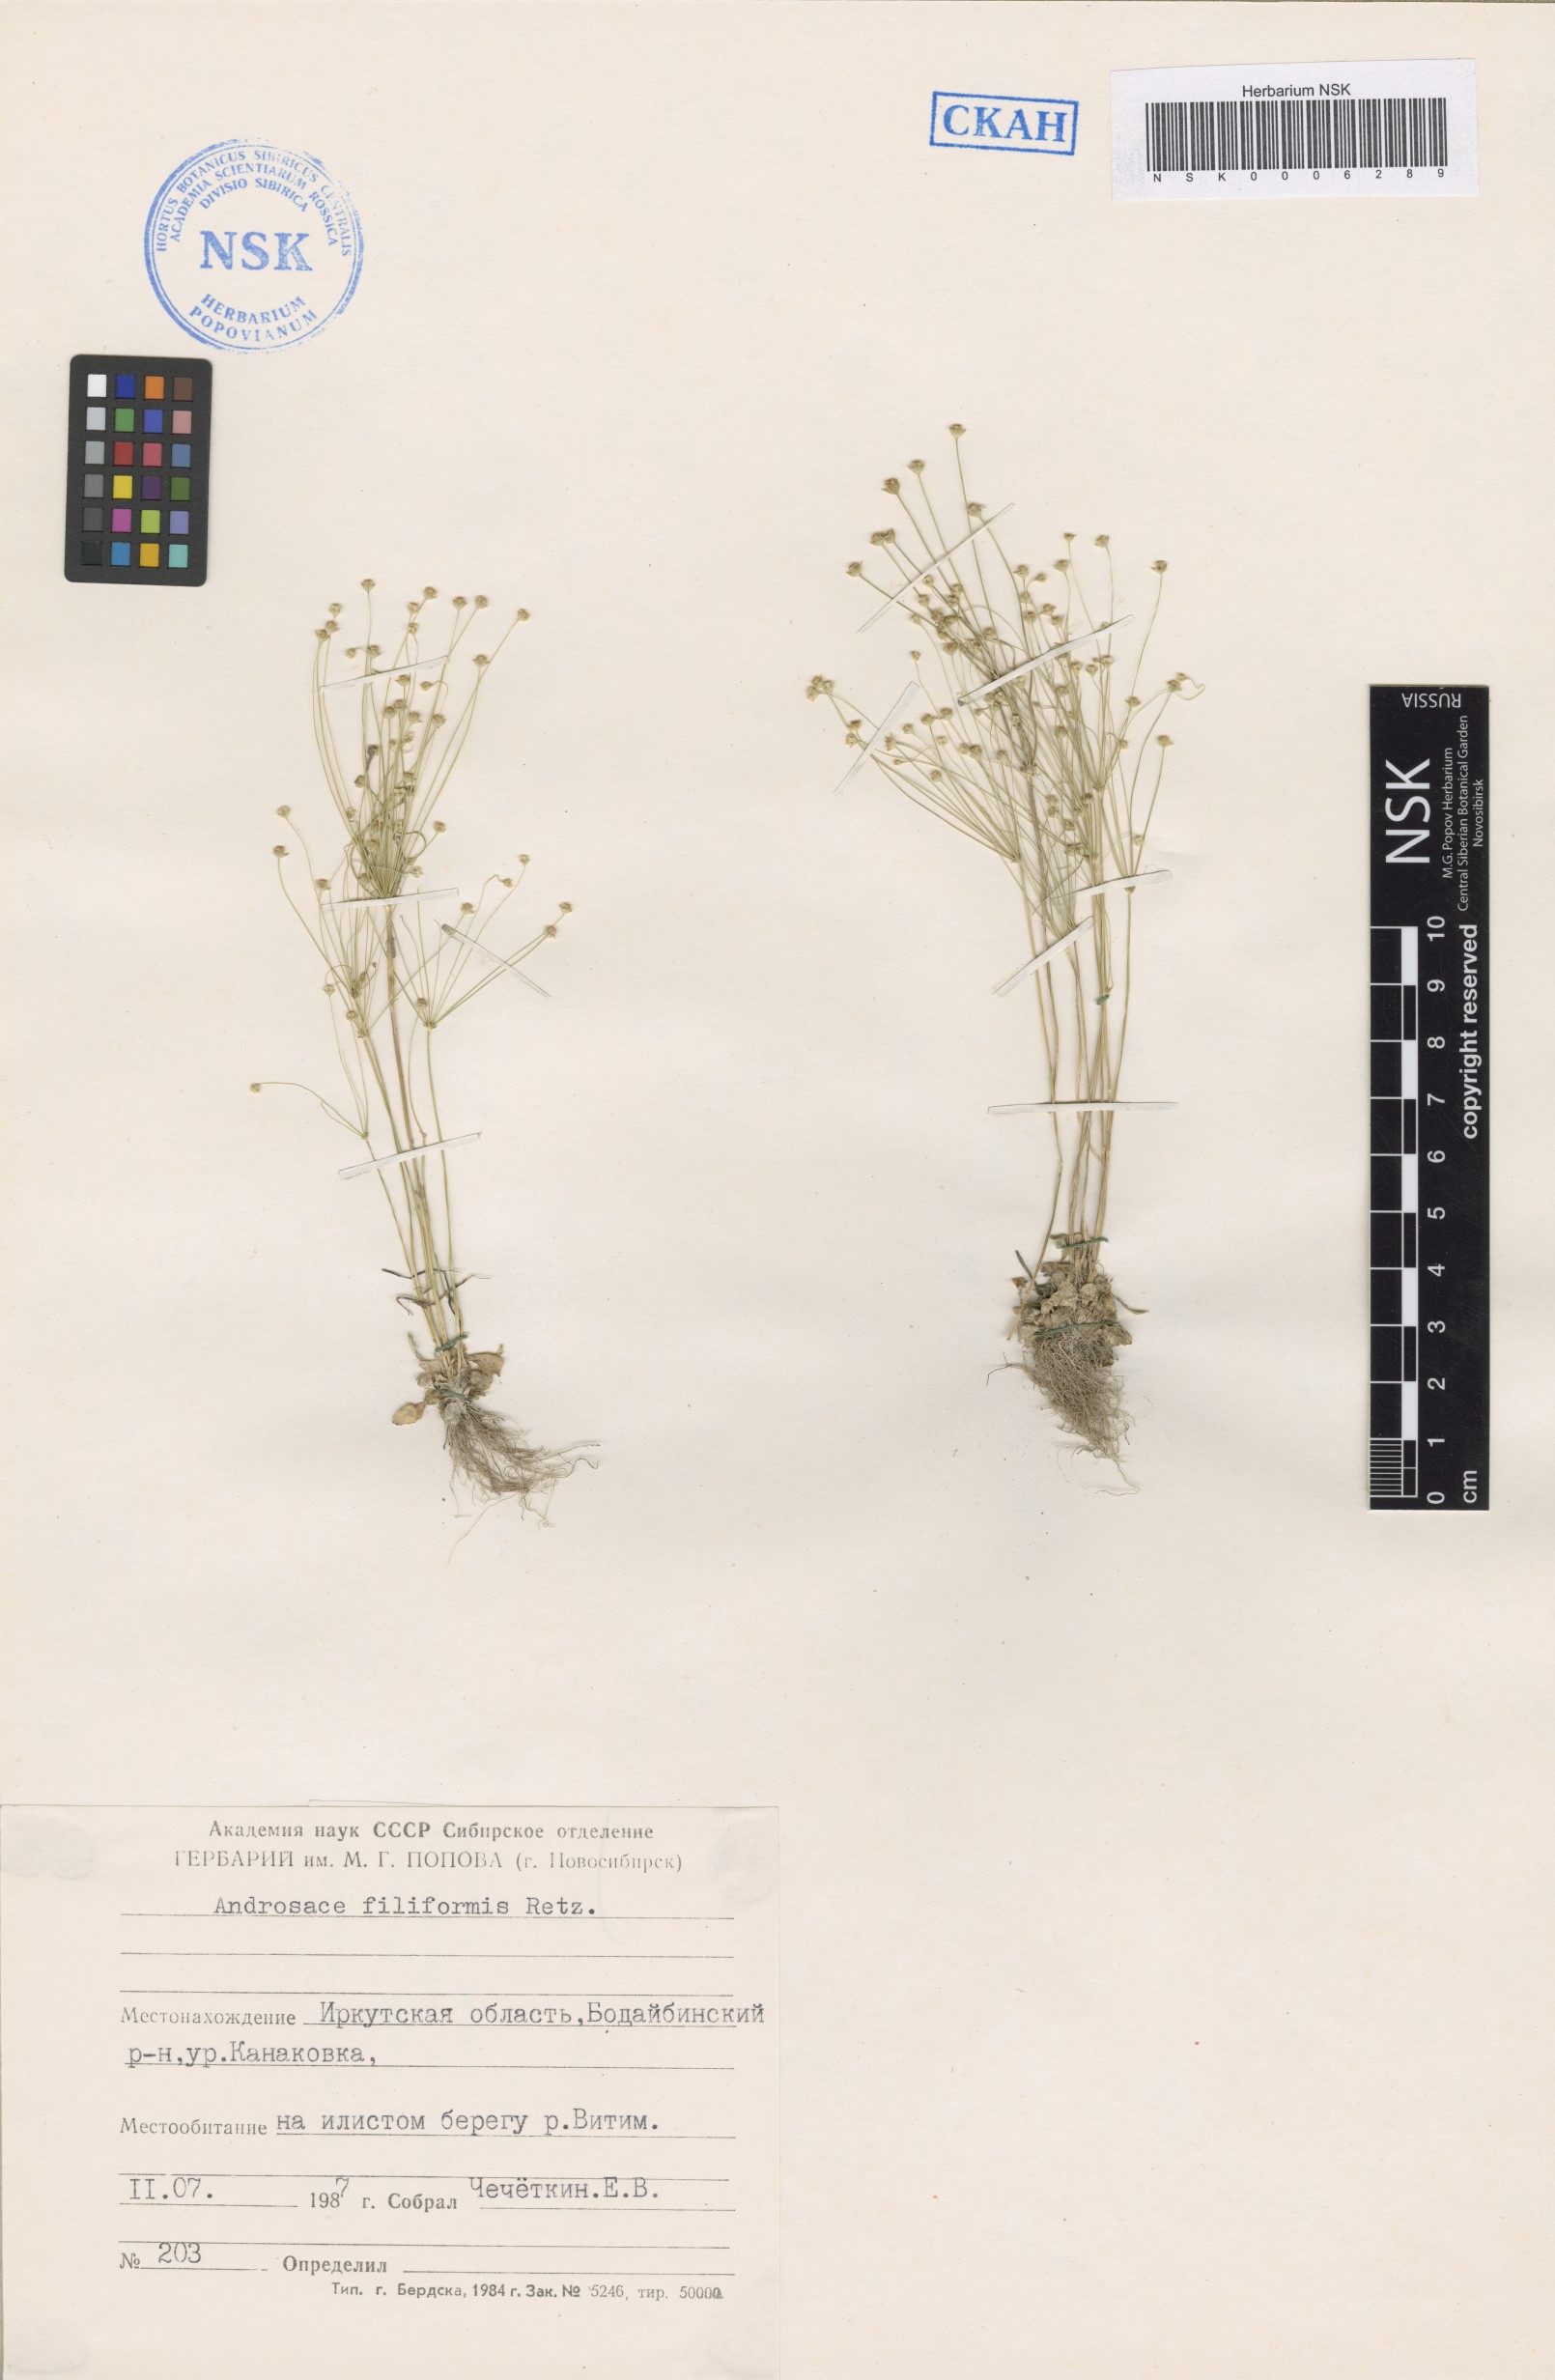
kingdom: Plantae
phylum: Tracheophyta
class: Magnoliopsida
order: Ericales
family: Primulaceae
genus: Androsace
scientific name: Androsace filiformis
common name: Filiform rock jasmine
